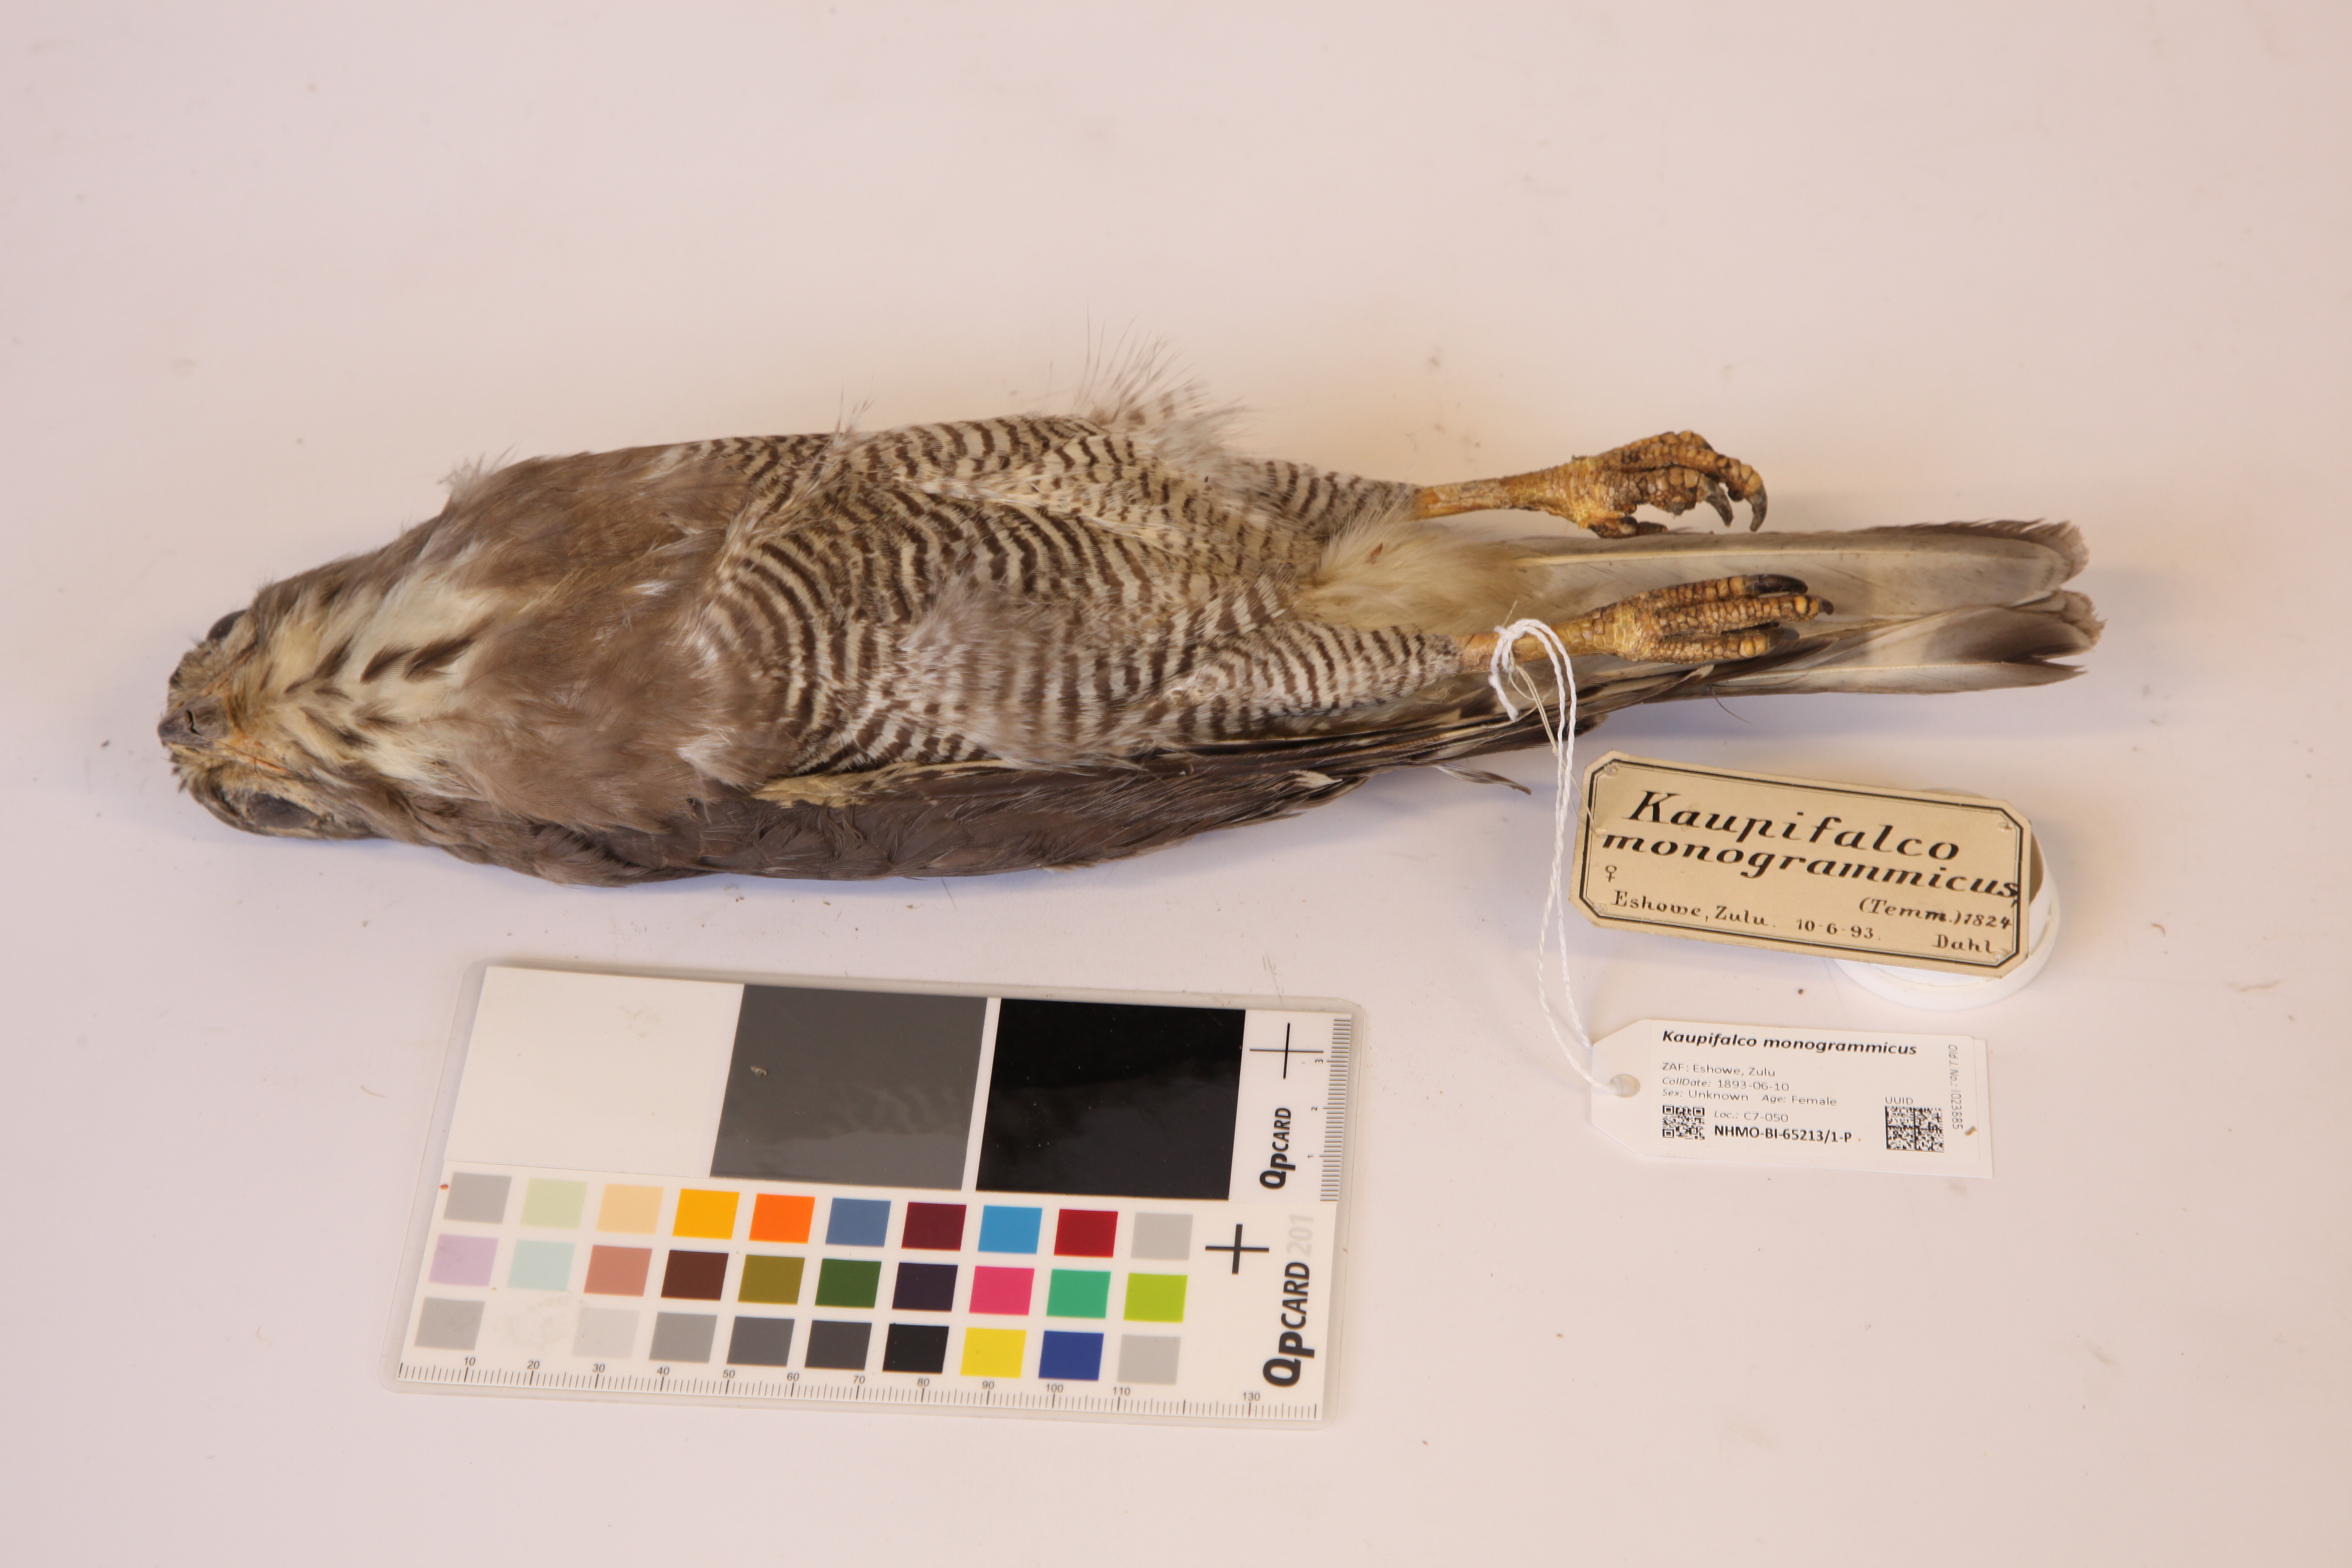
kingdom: Animalia
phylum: Chordata
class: Aves
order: Accipitriformes
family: Accipitridae
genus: Kaupifalco
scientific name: Kaupifalco monogrammicus
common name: Lizard buzzard
